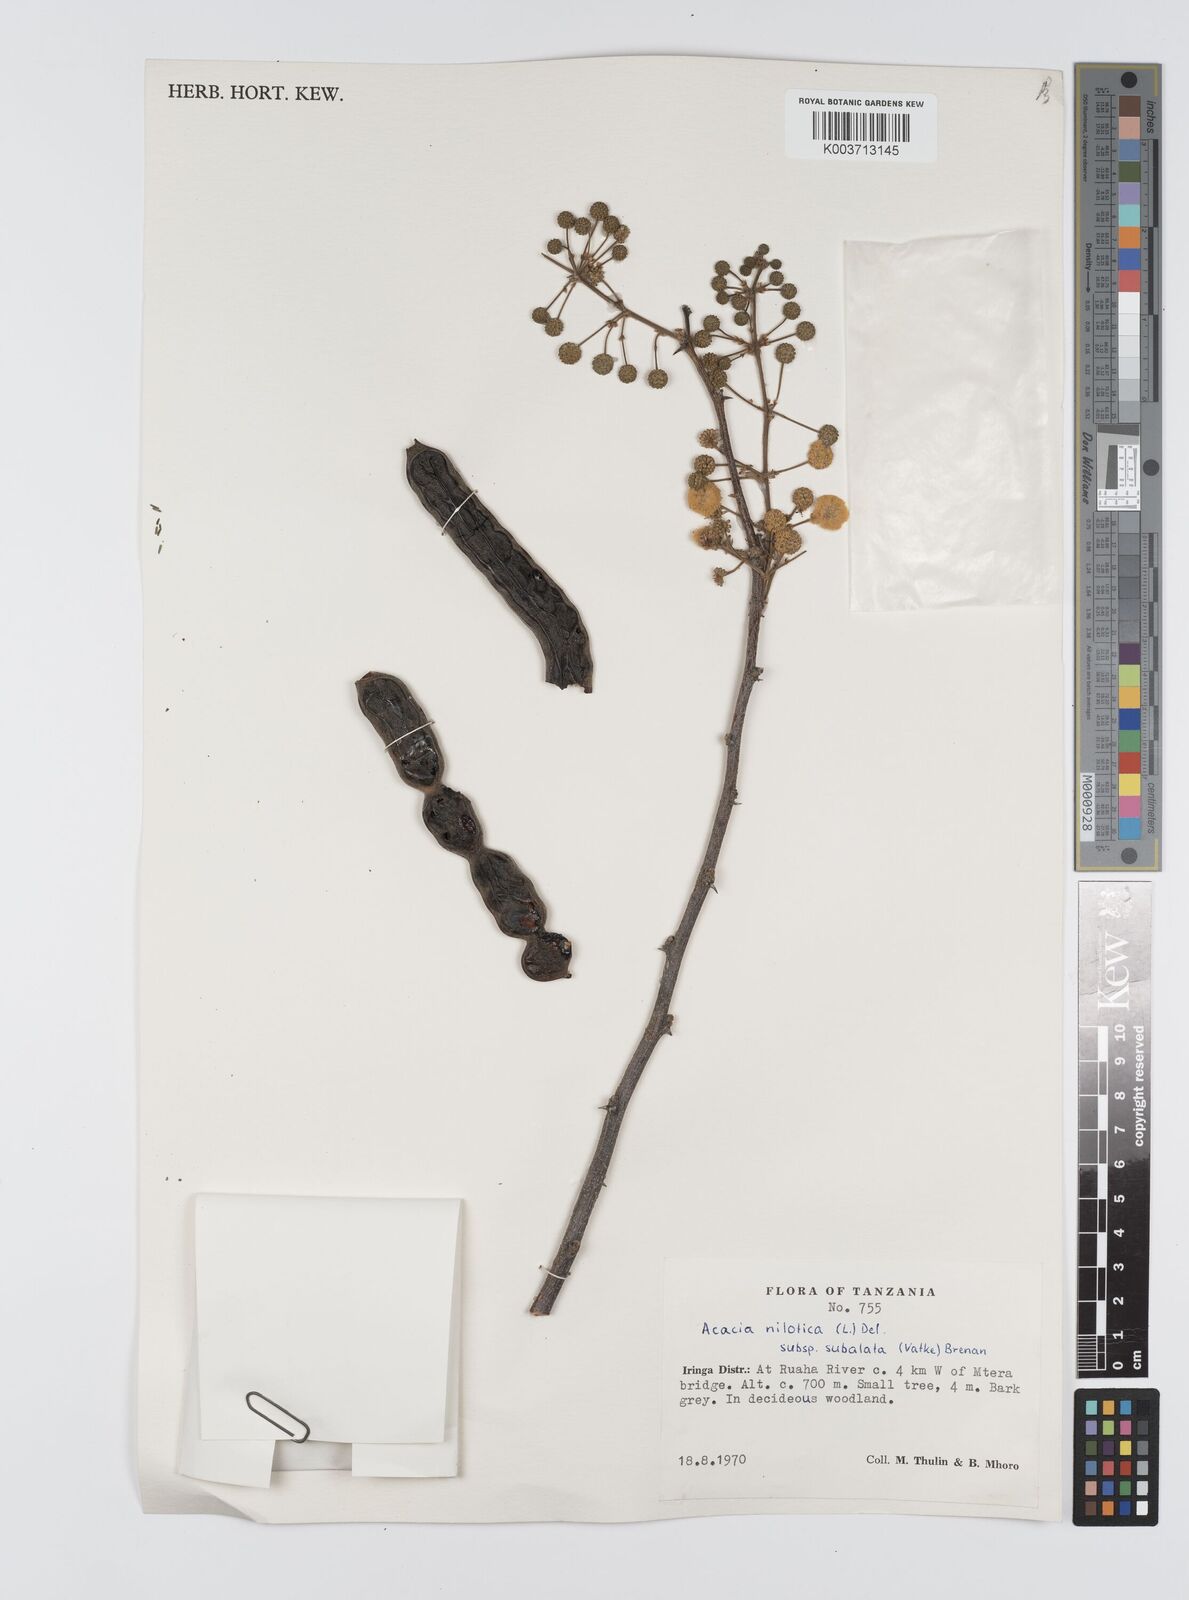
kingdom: Plantae
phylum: Tracheophyta
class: Magnoliopsida
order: Fabales
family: Fabaceae
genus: Vachellia
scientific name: Vachellia nilotica
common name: Arabic gumtree
